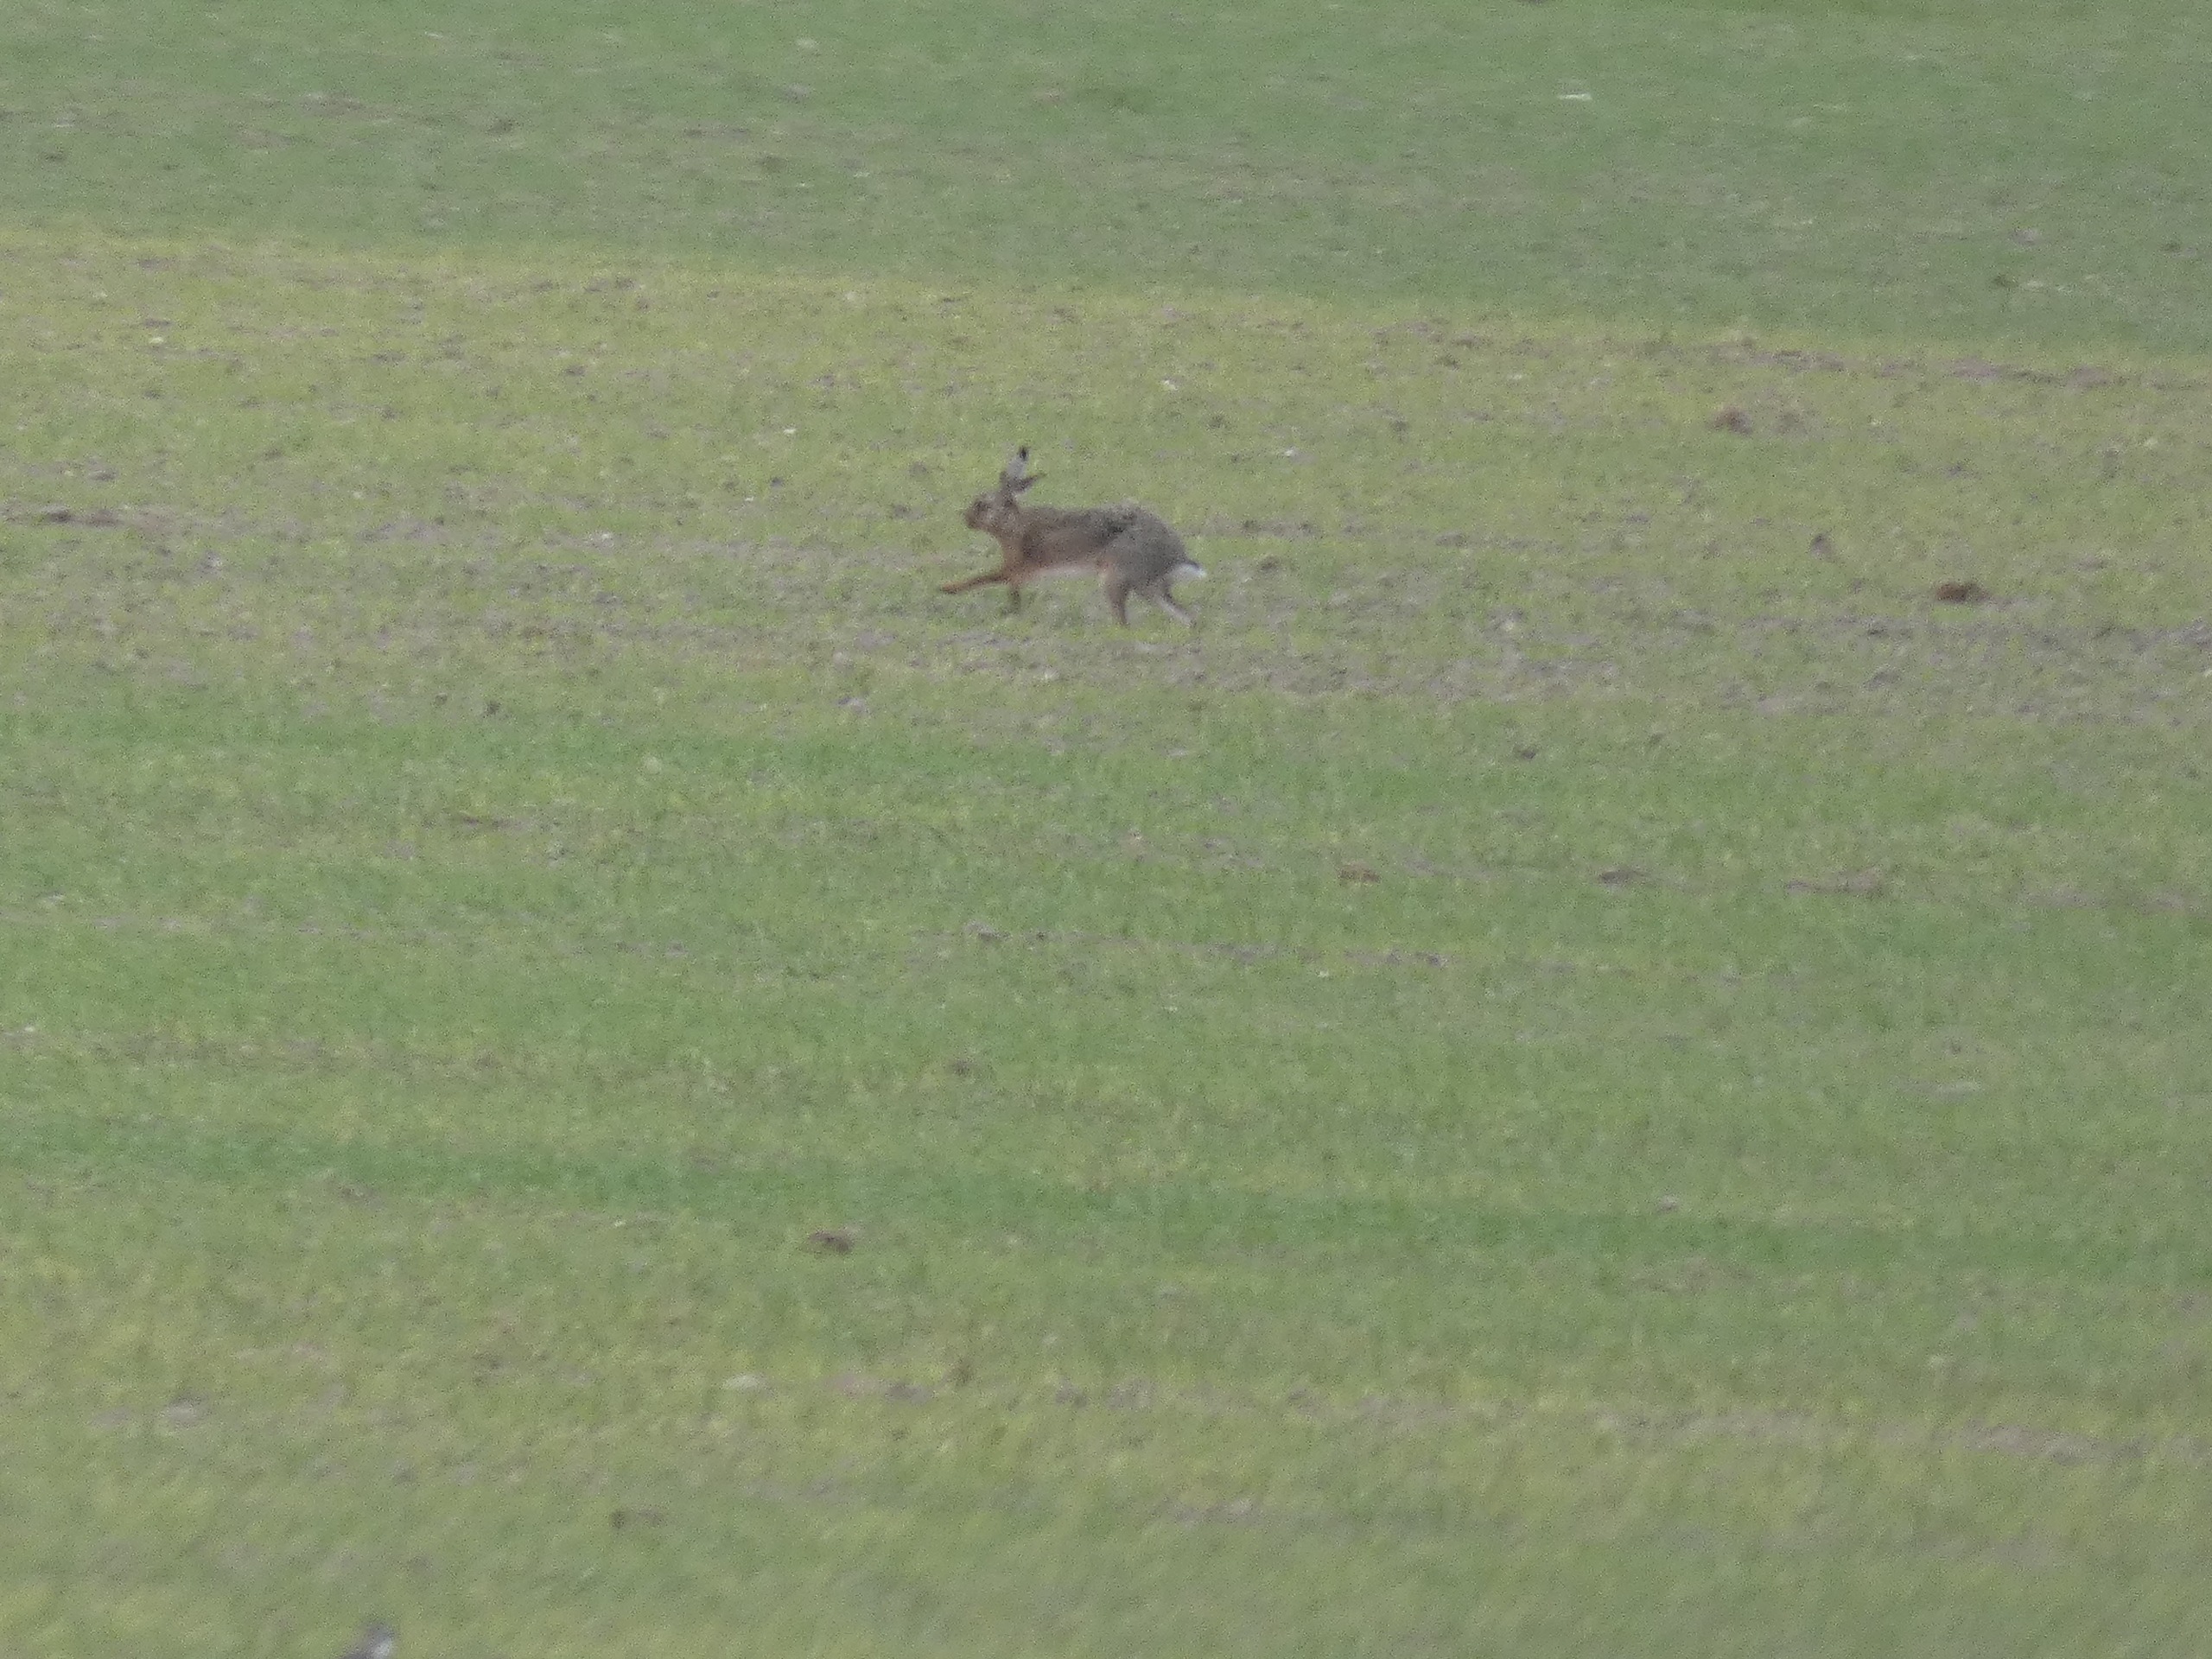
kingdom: Animalia
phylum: Chordata
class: Mammalia
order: Lagomorpha
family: Leporidae
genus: Lepus
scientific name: Lepus europaeus
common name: Hare
